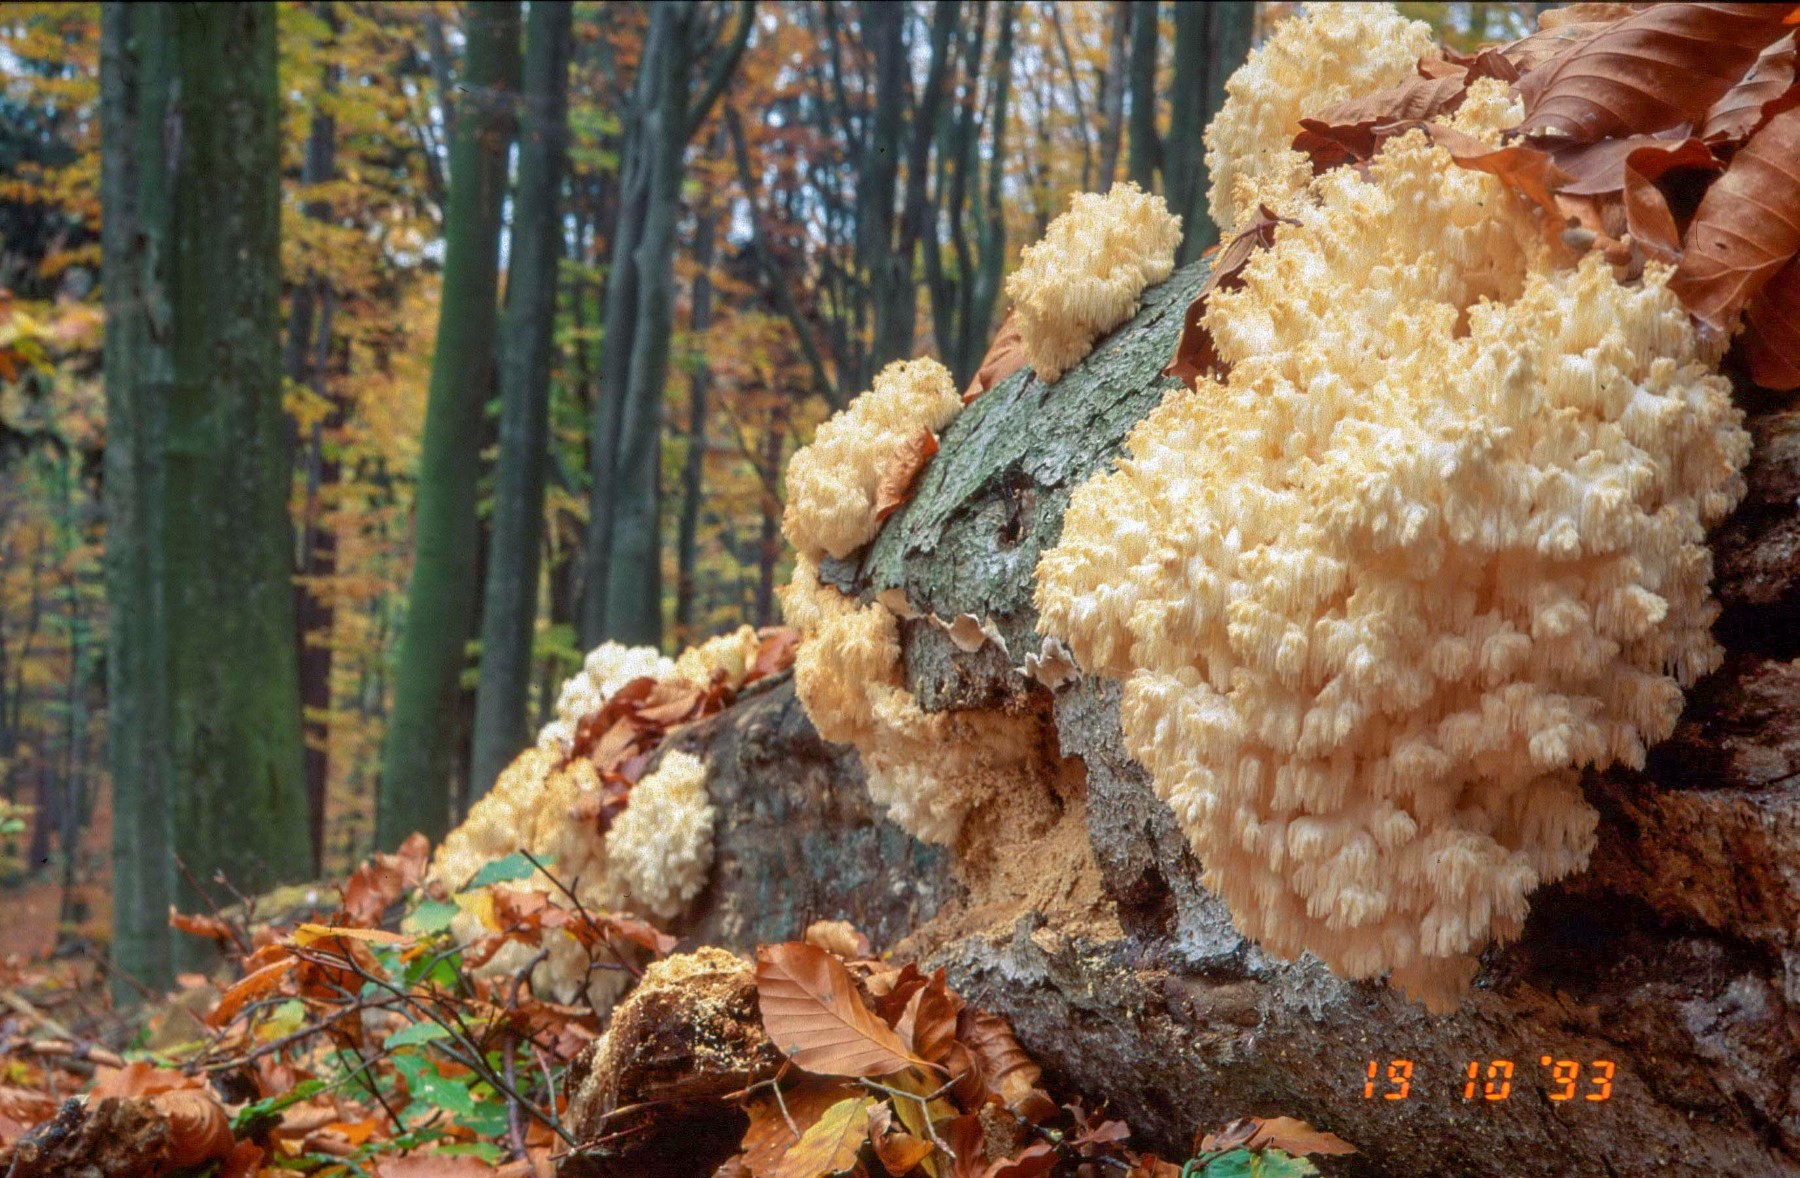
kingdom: Fungi
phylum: Basidiomycota
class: Agaricomycetes
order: Russulales
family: Hericiaceae
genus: Hericium
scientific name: Hericium coralloides
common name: koralpigsvamp
